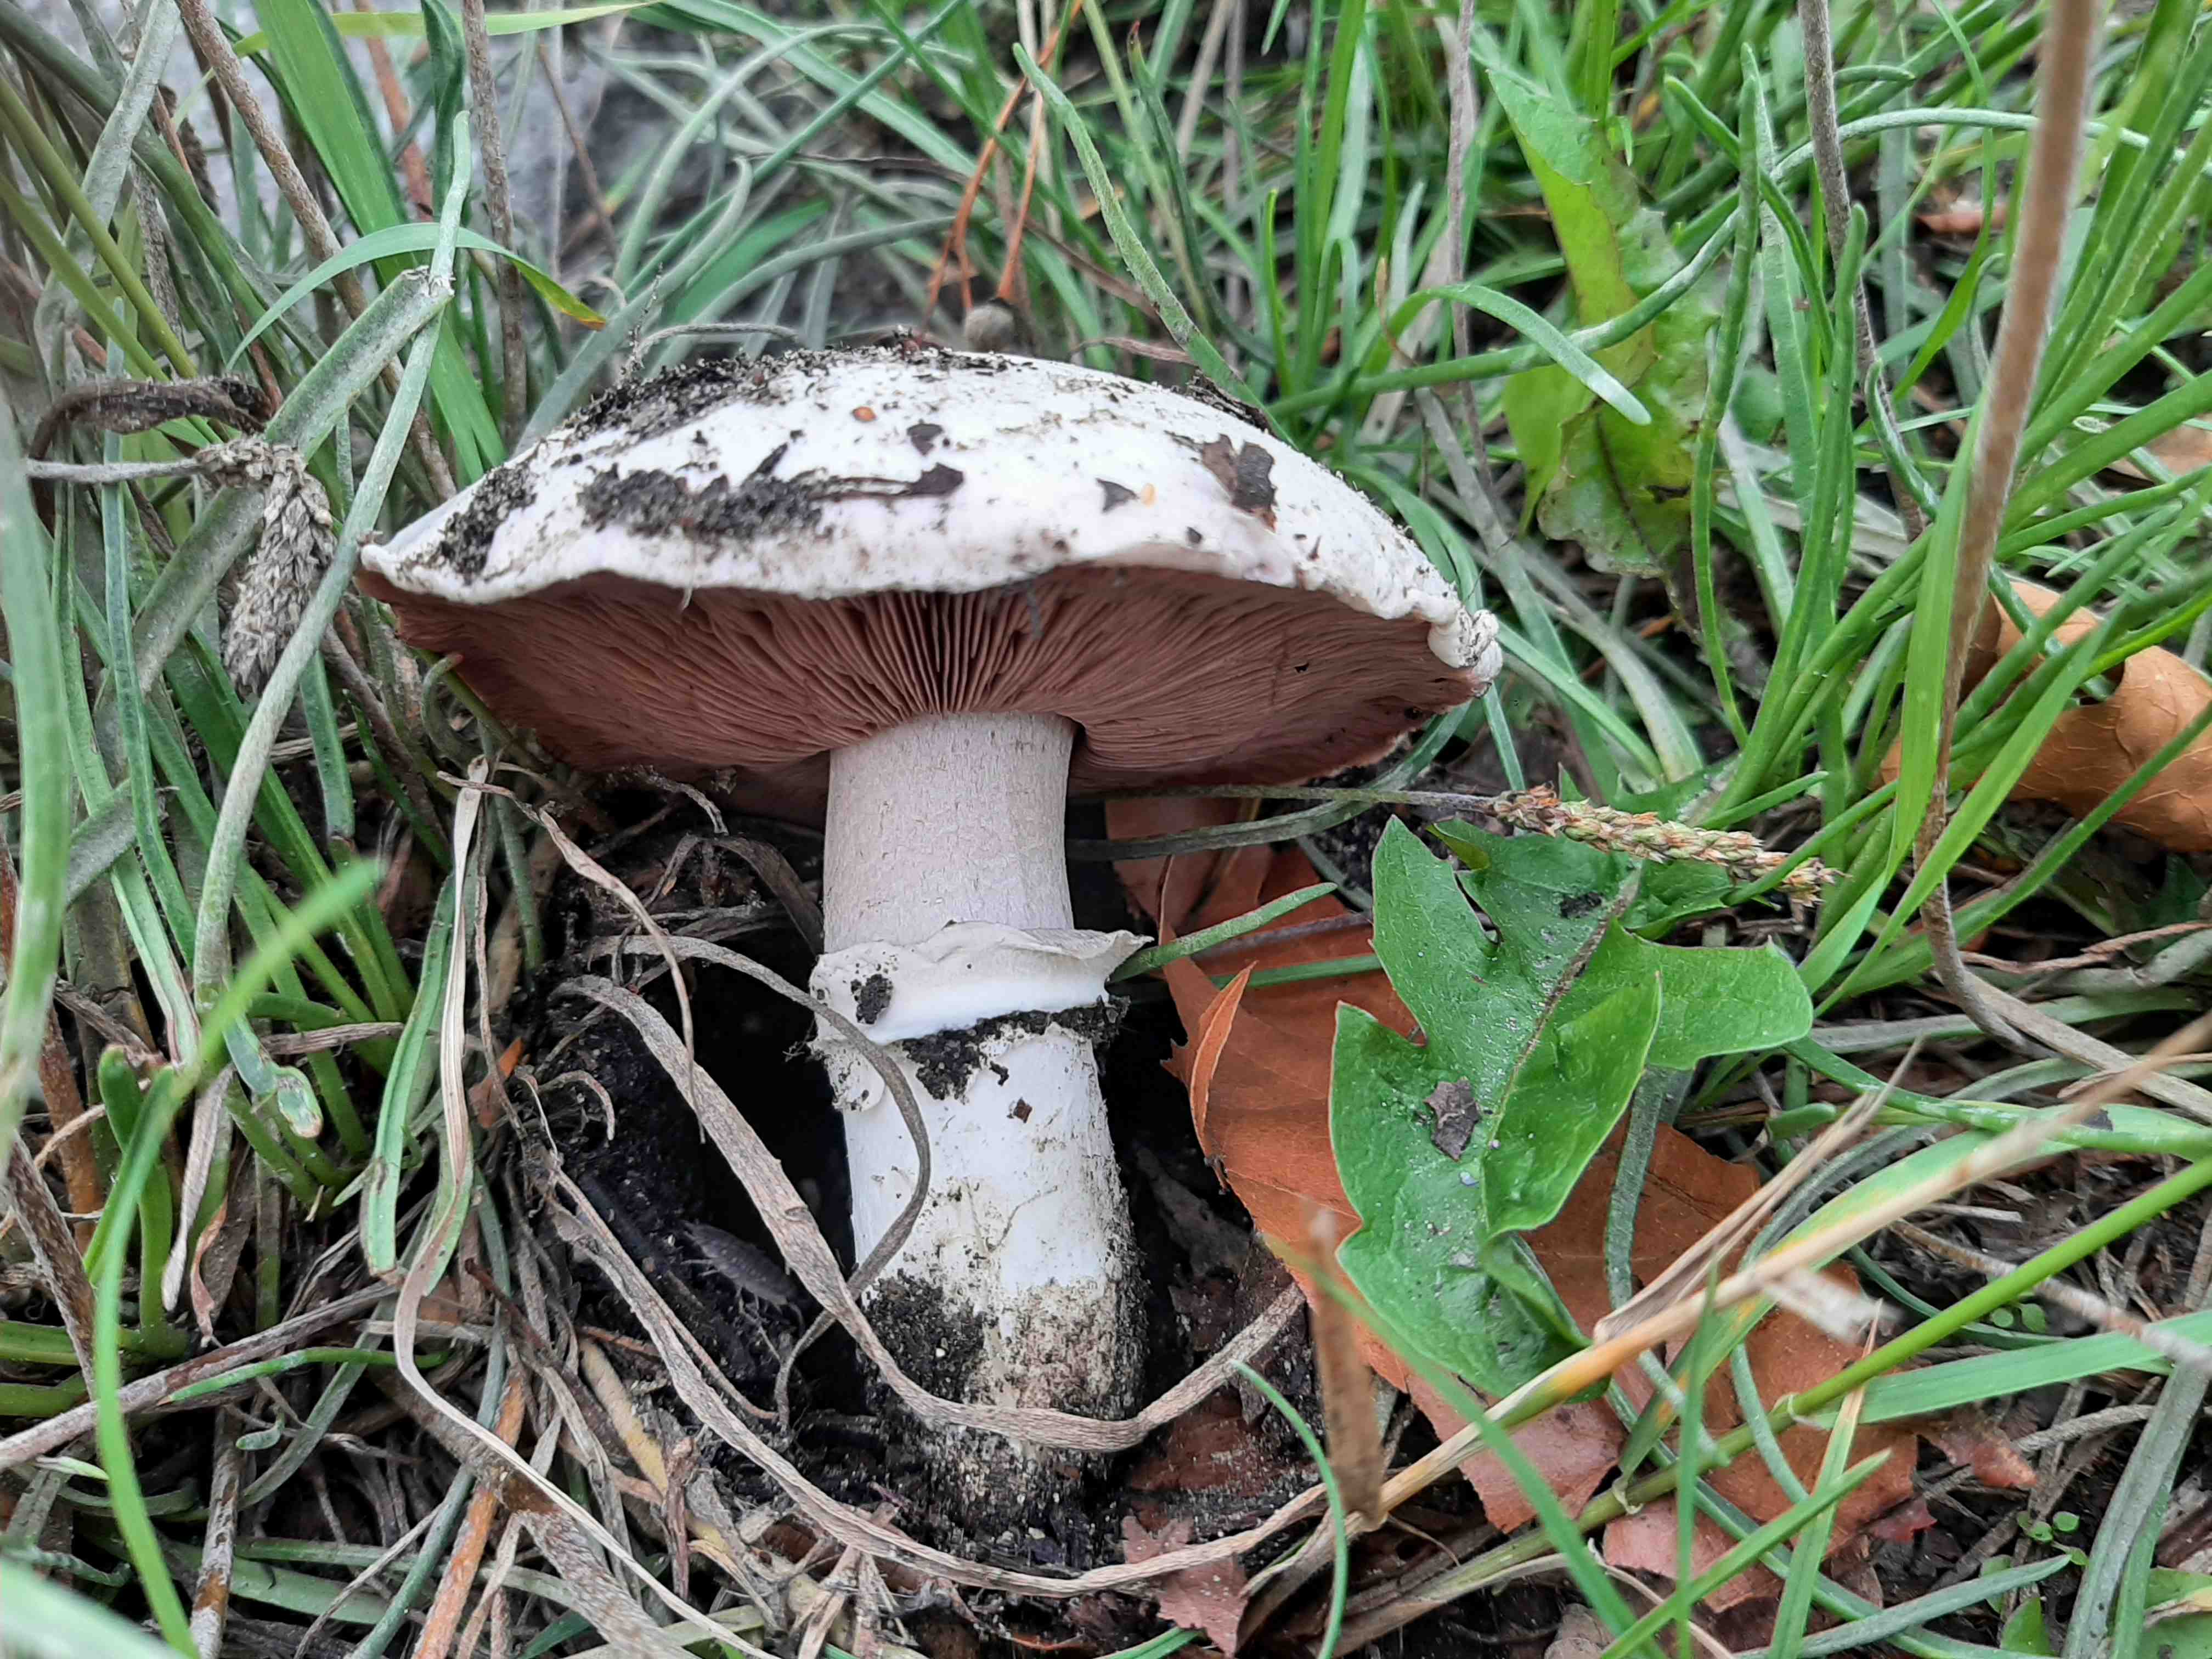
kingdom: Fungi
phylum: Basidiomycota
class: Agaricomycetes
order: Agaricales
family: Agaricaceae
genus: Agaricus
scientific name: Agaricus bitorquis
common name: vej-champignon
